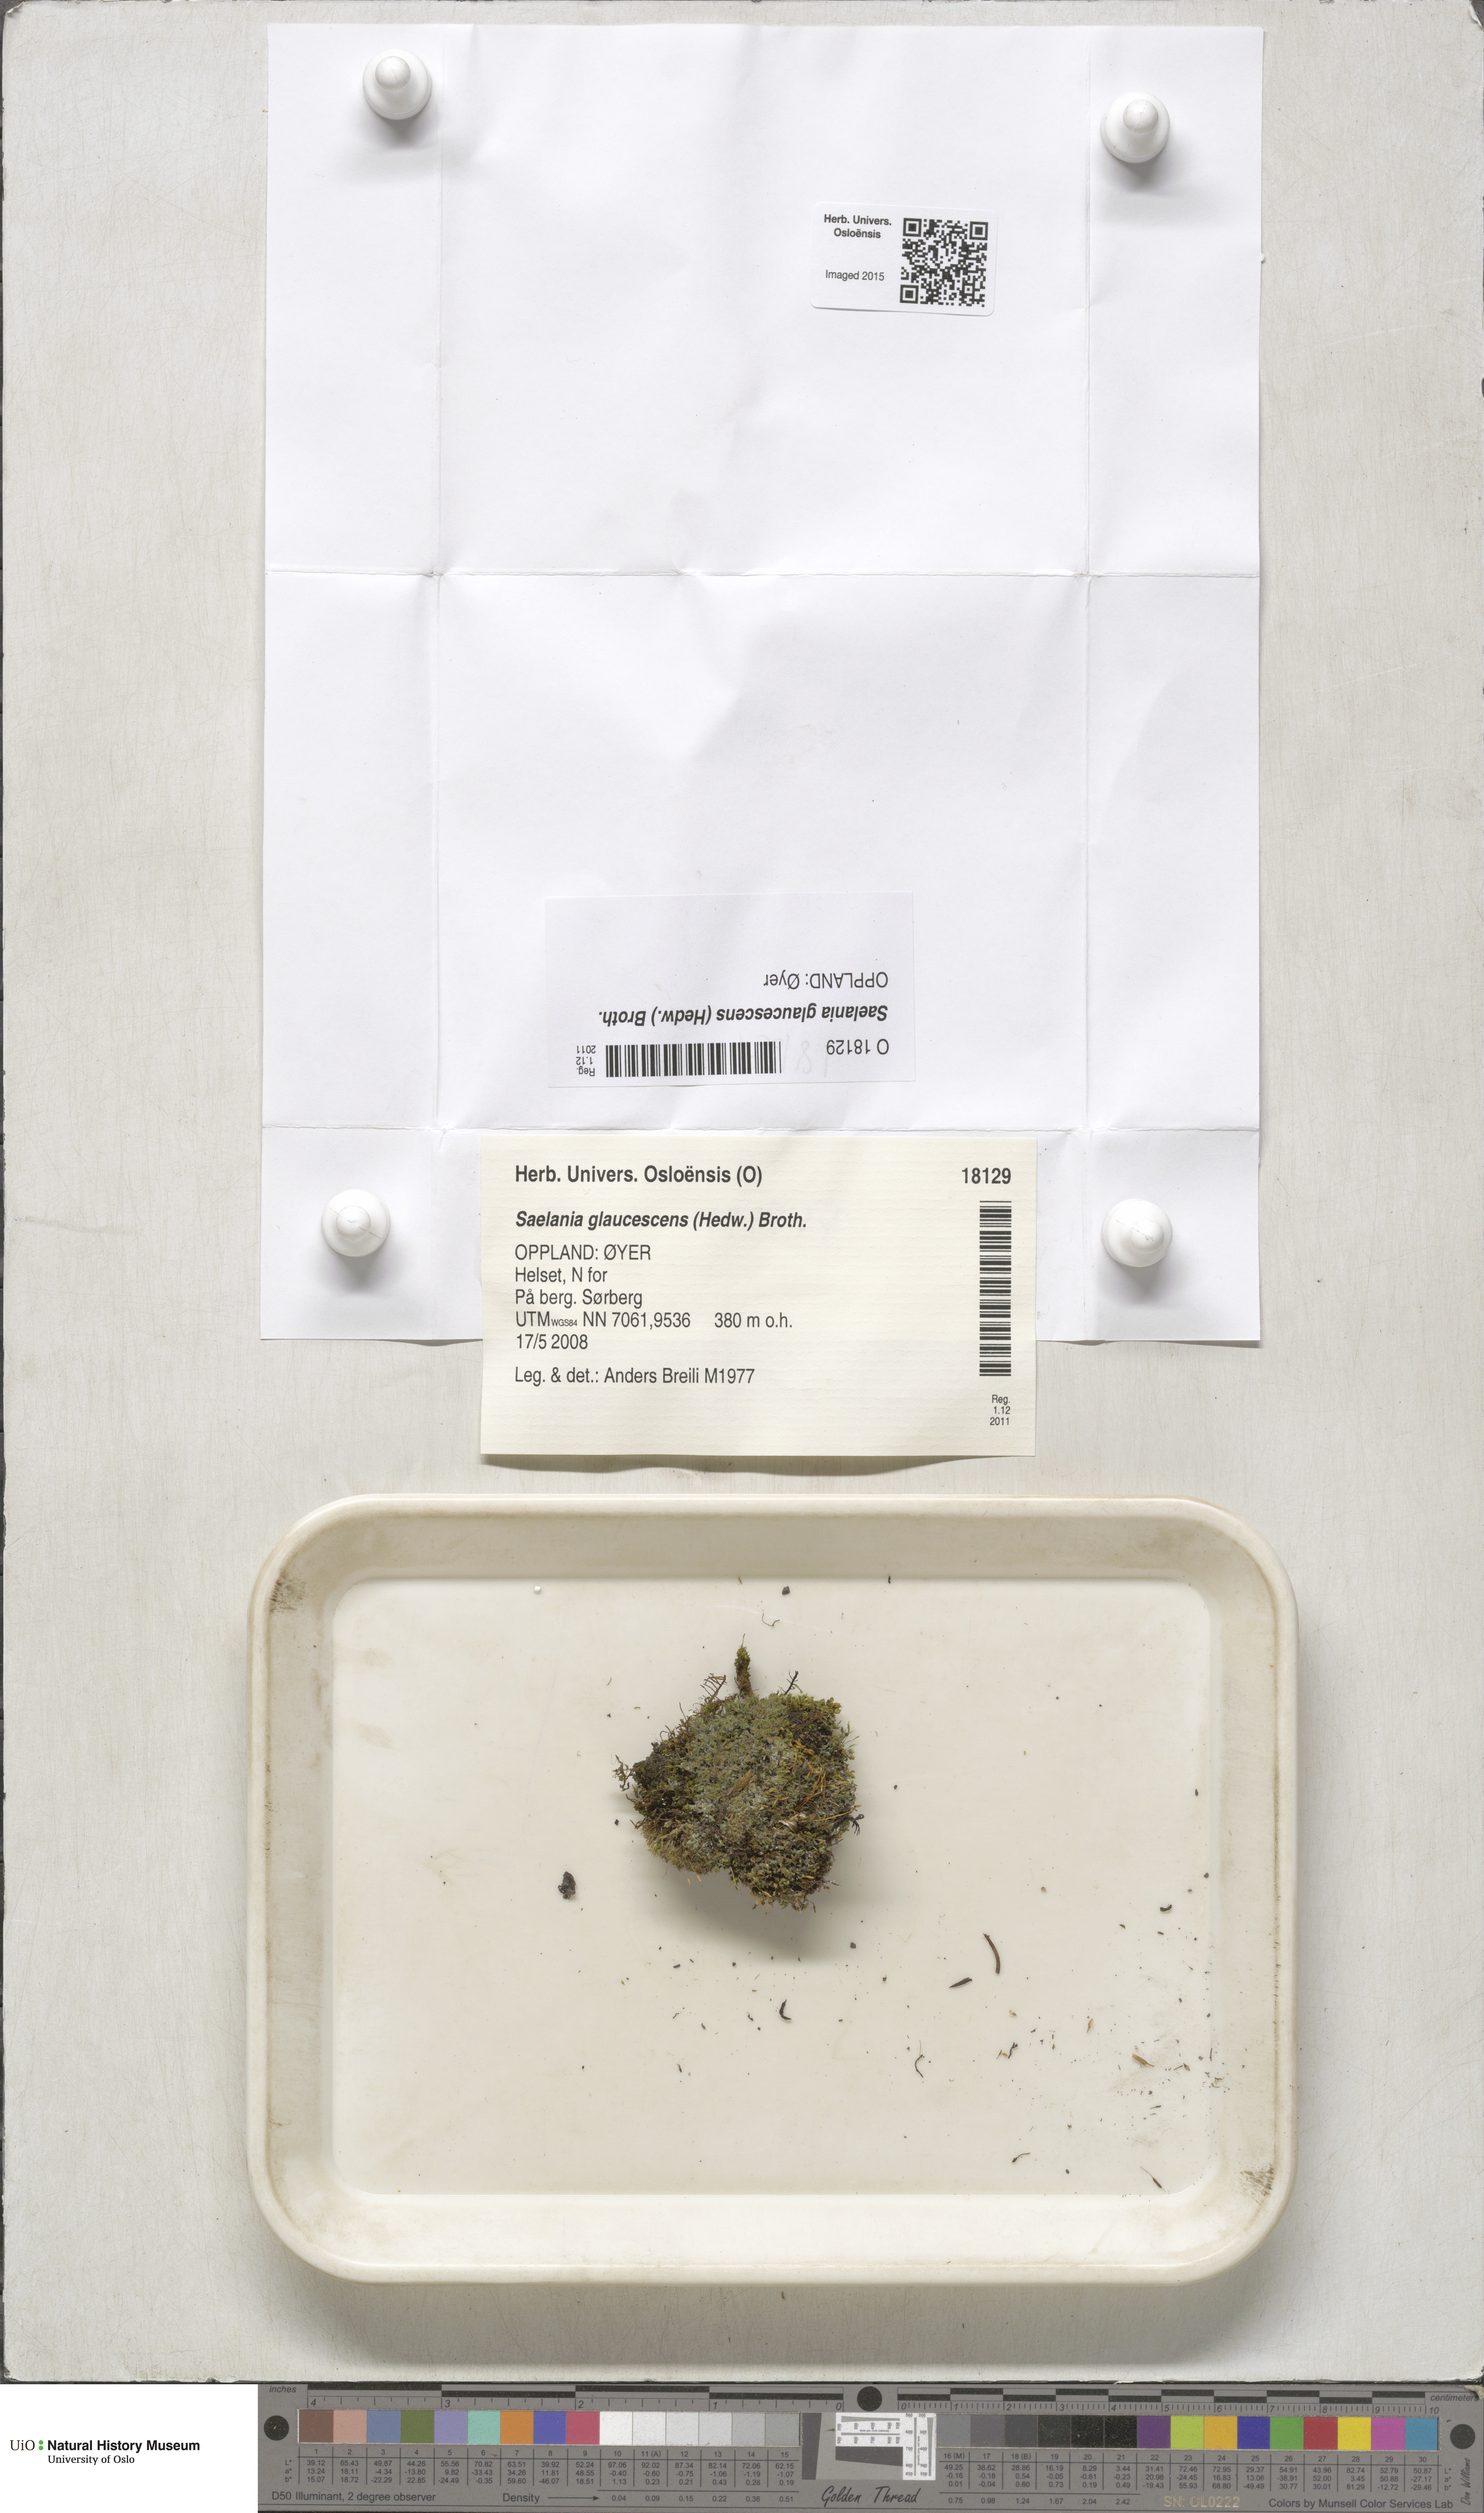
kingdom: Plantae
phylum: Bryophyta
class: Bryopsida
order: Grimmiales
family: Saelaniaceae
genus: Saelania
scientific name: Saelania glaucescens
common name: Blue dew-moss
